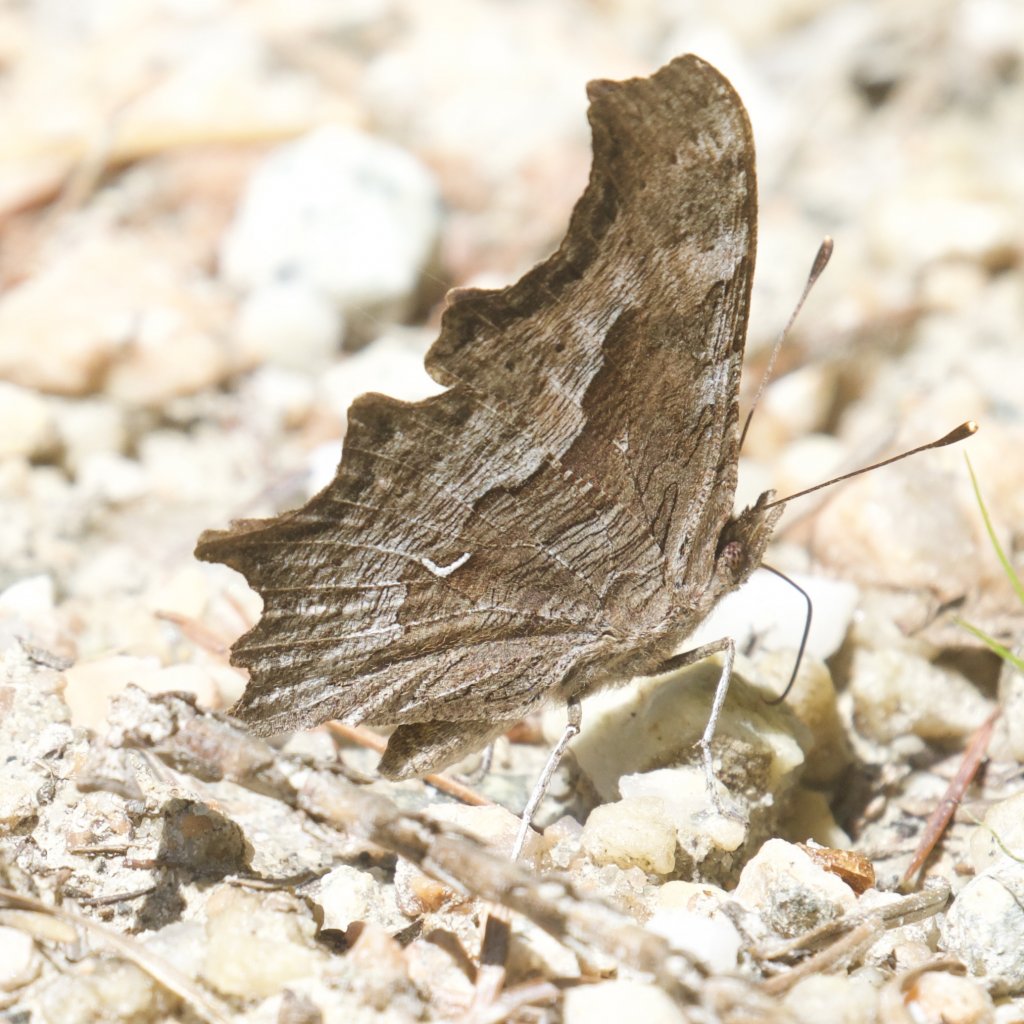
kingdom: Animalia
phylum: Arthropoda
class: Insecta
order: Lepidoptera
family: Nymphalidae
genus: Polygonia
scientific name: Polygonia gracilis
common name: Hoary Comma
